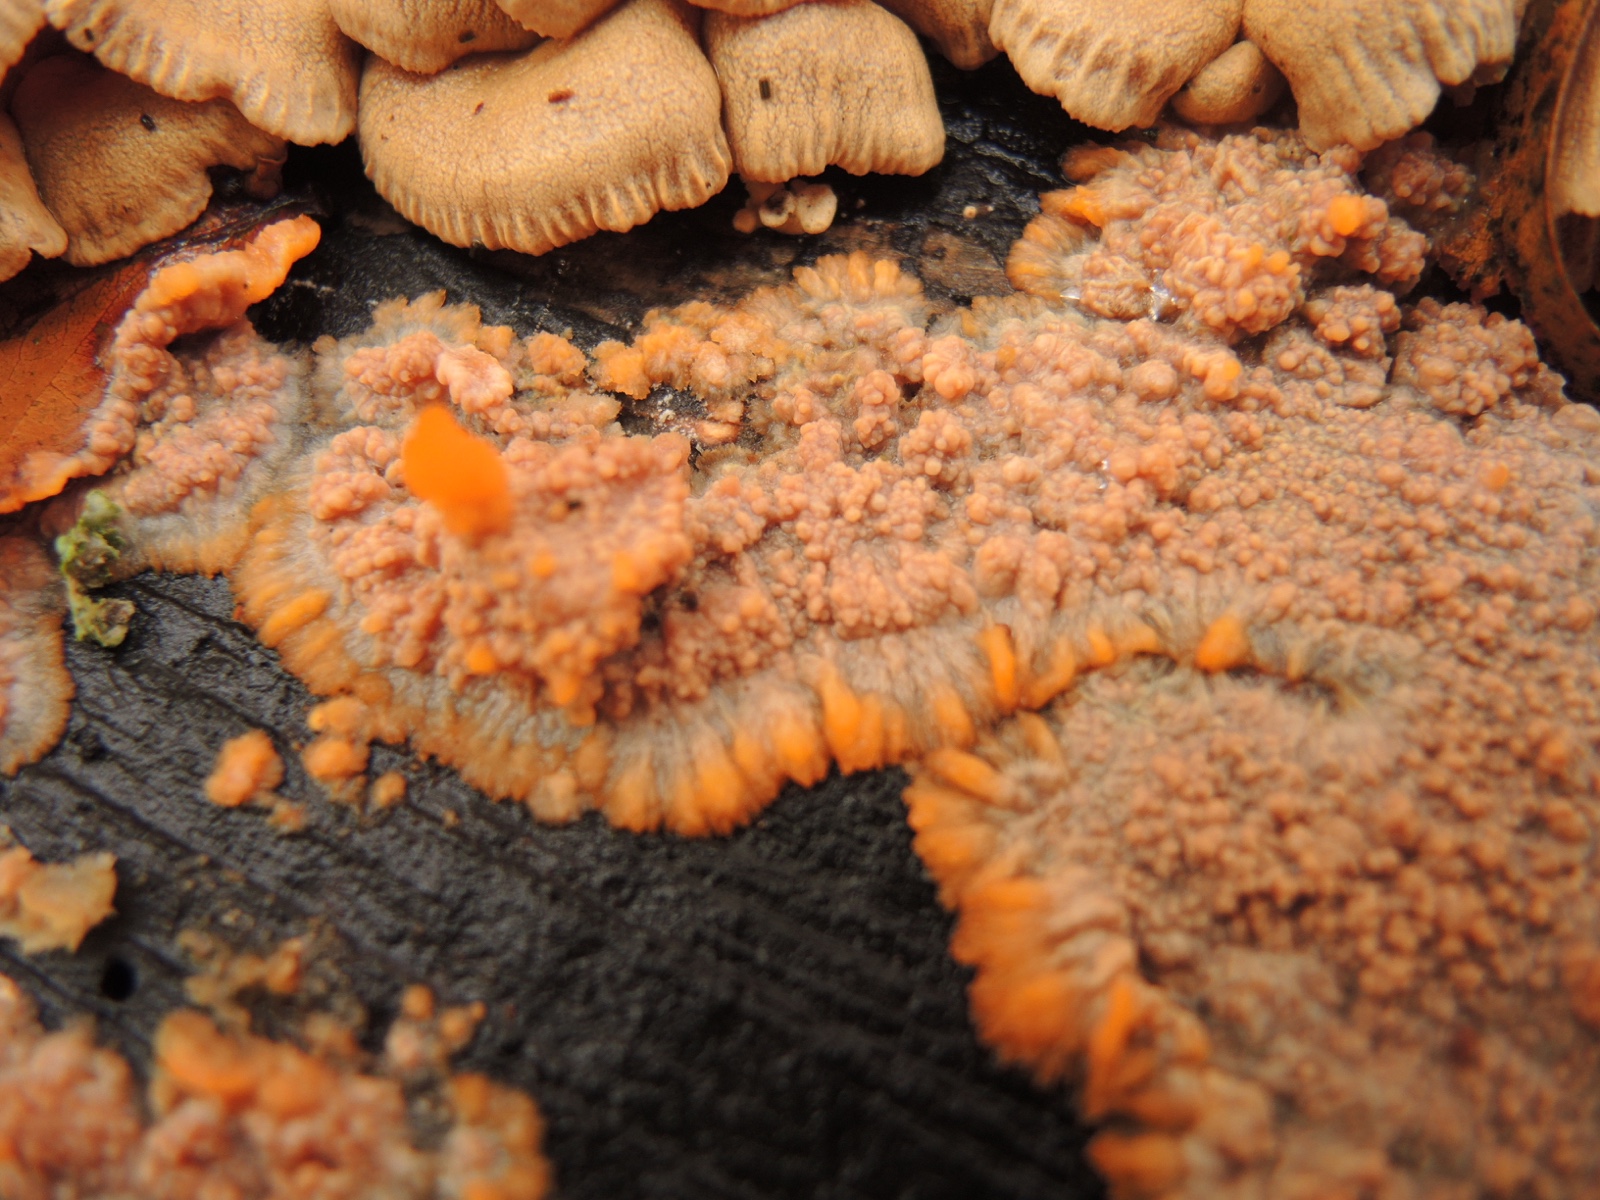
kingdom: Fungi
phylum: Basidiomycota
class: Agaricomycetes
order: Polyporales
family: Meruliaceae
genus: Phlebia
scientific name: Phlebia radiata
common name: stråle-åresvamp
